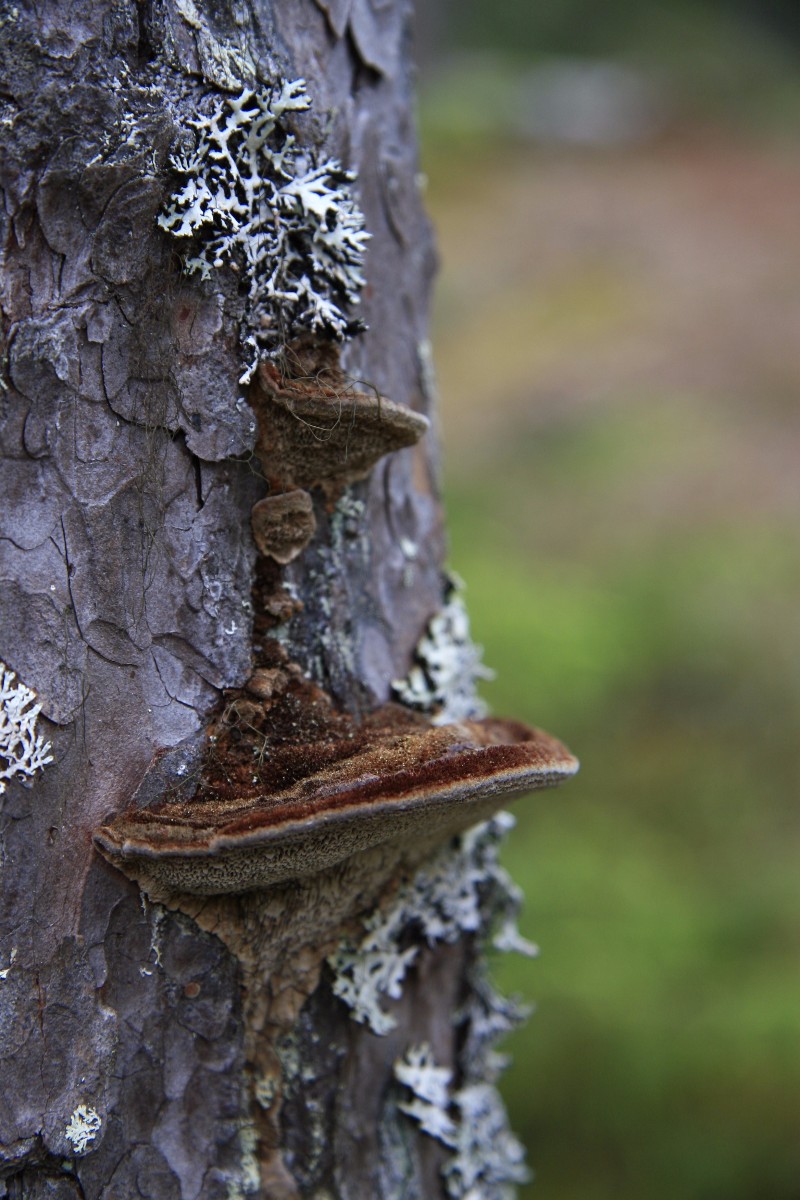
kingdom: Fungi
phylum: Basidiomycota
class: Agaricomycetes
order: Hymenochaetales
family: Hymenochaetaceae
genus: Porodaedalea
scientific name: Porodaedalea pini
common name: fyrre-ildporesvamp
